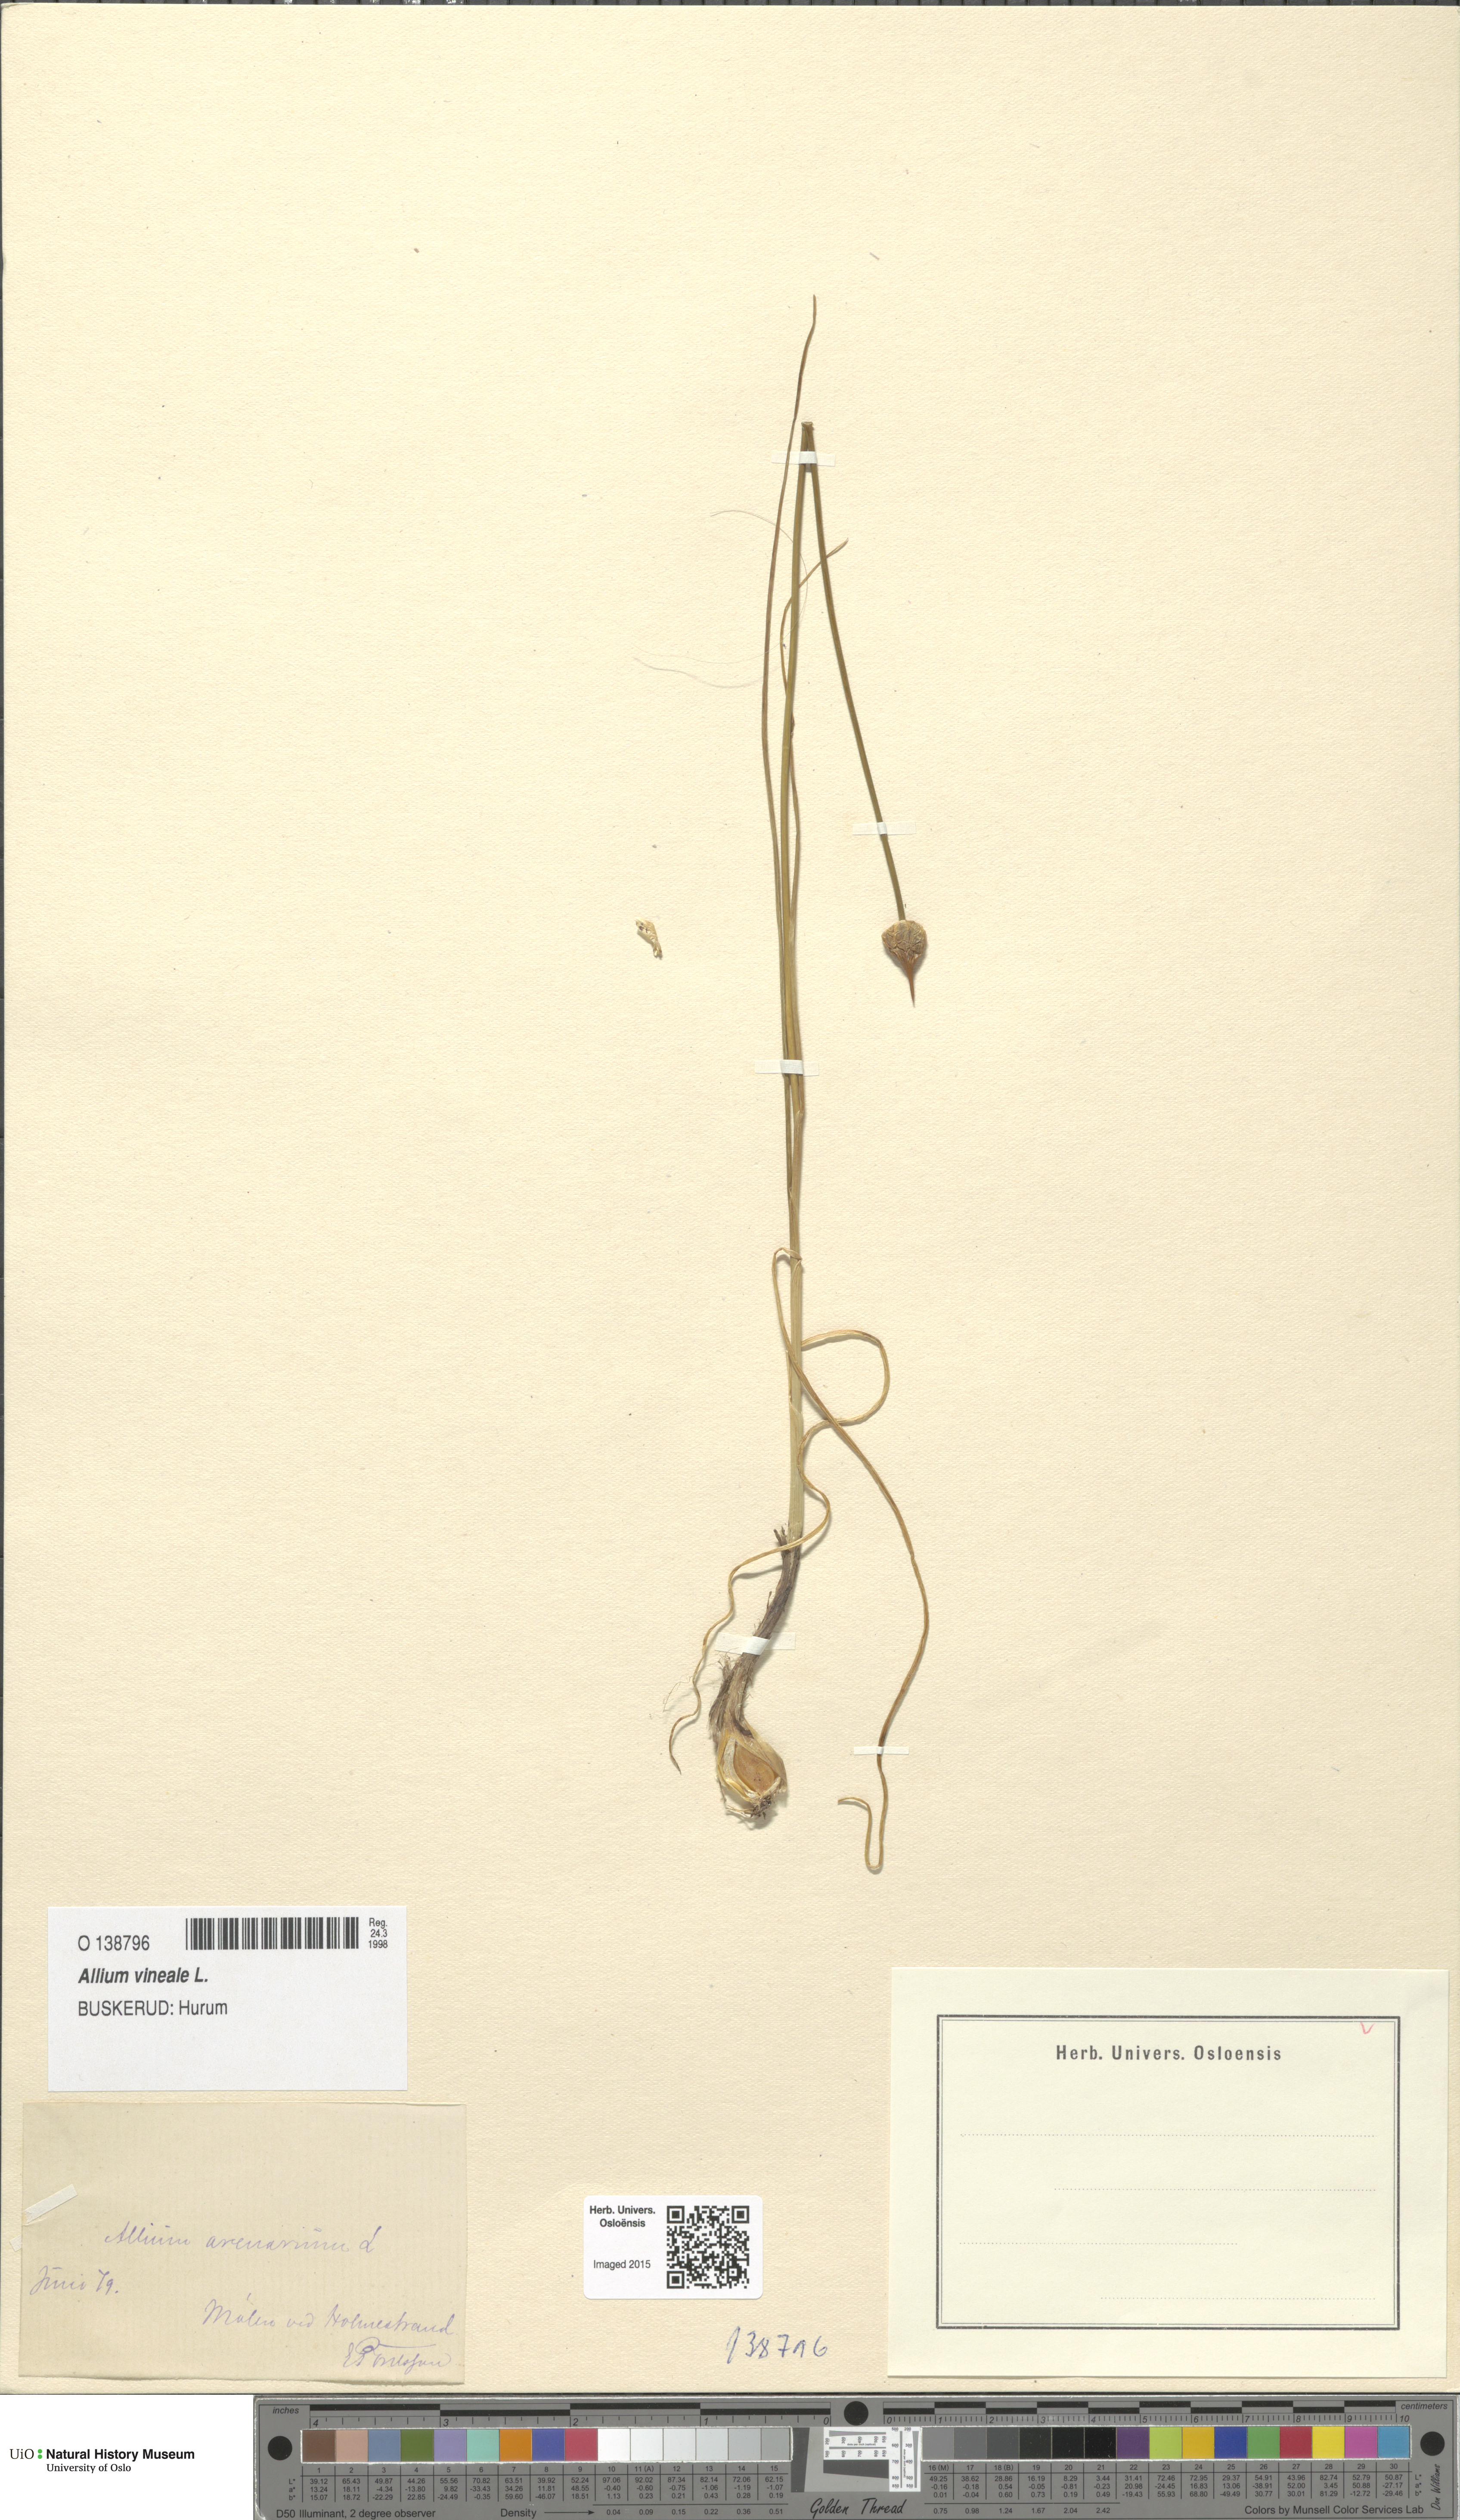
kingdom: Plantae
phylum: Tracheophyta
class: Liliopsida
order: Asparagales
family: Amaryllidaceae
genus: Allium
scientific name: Allium vineale
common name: Crow garlic
